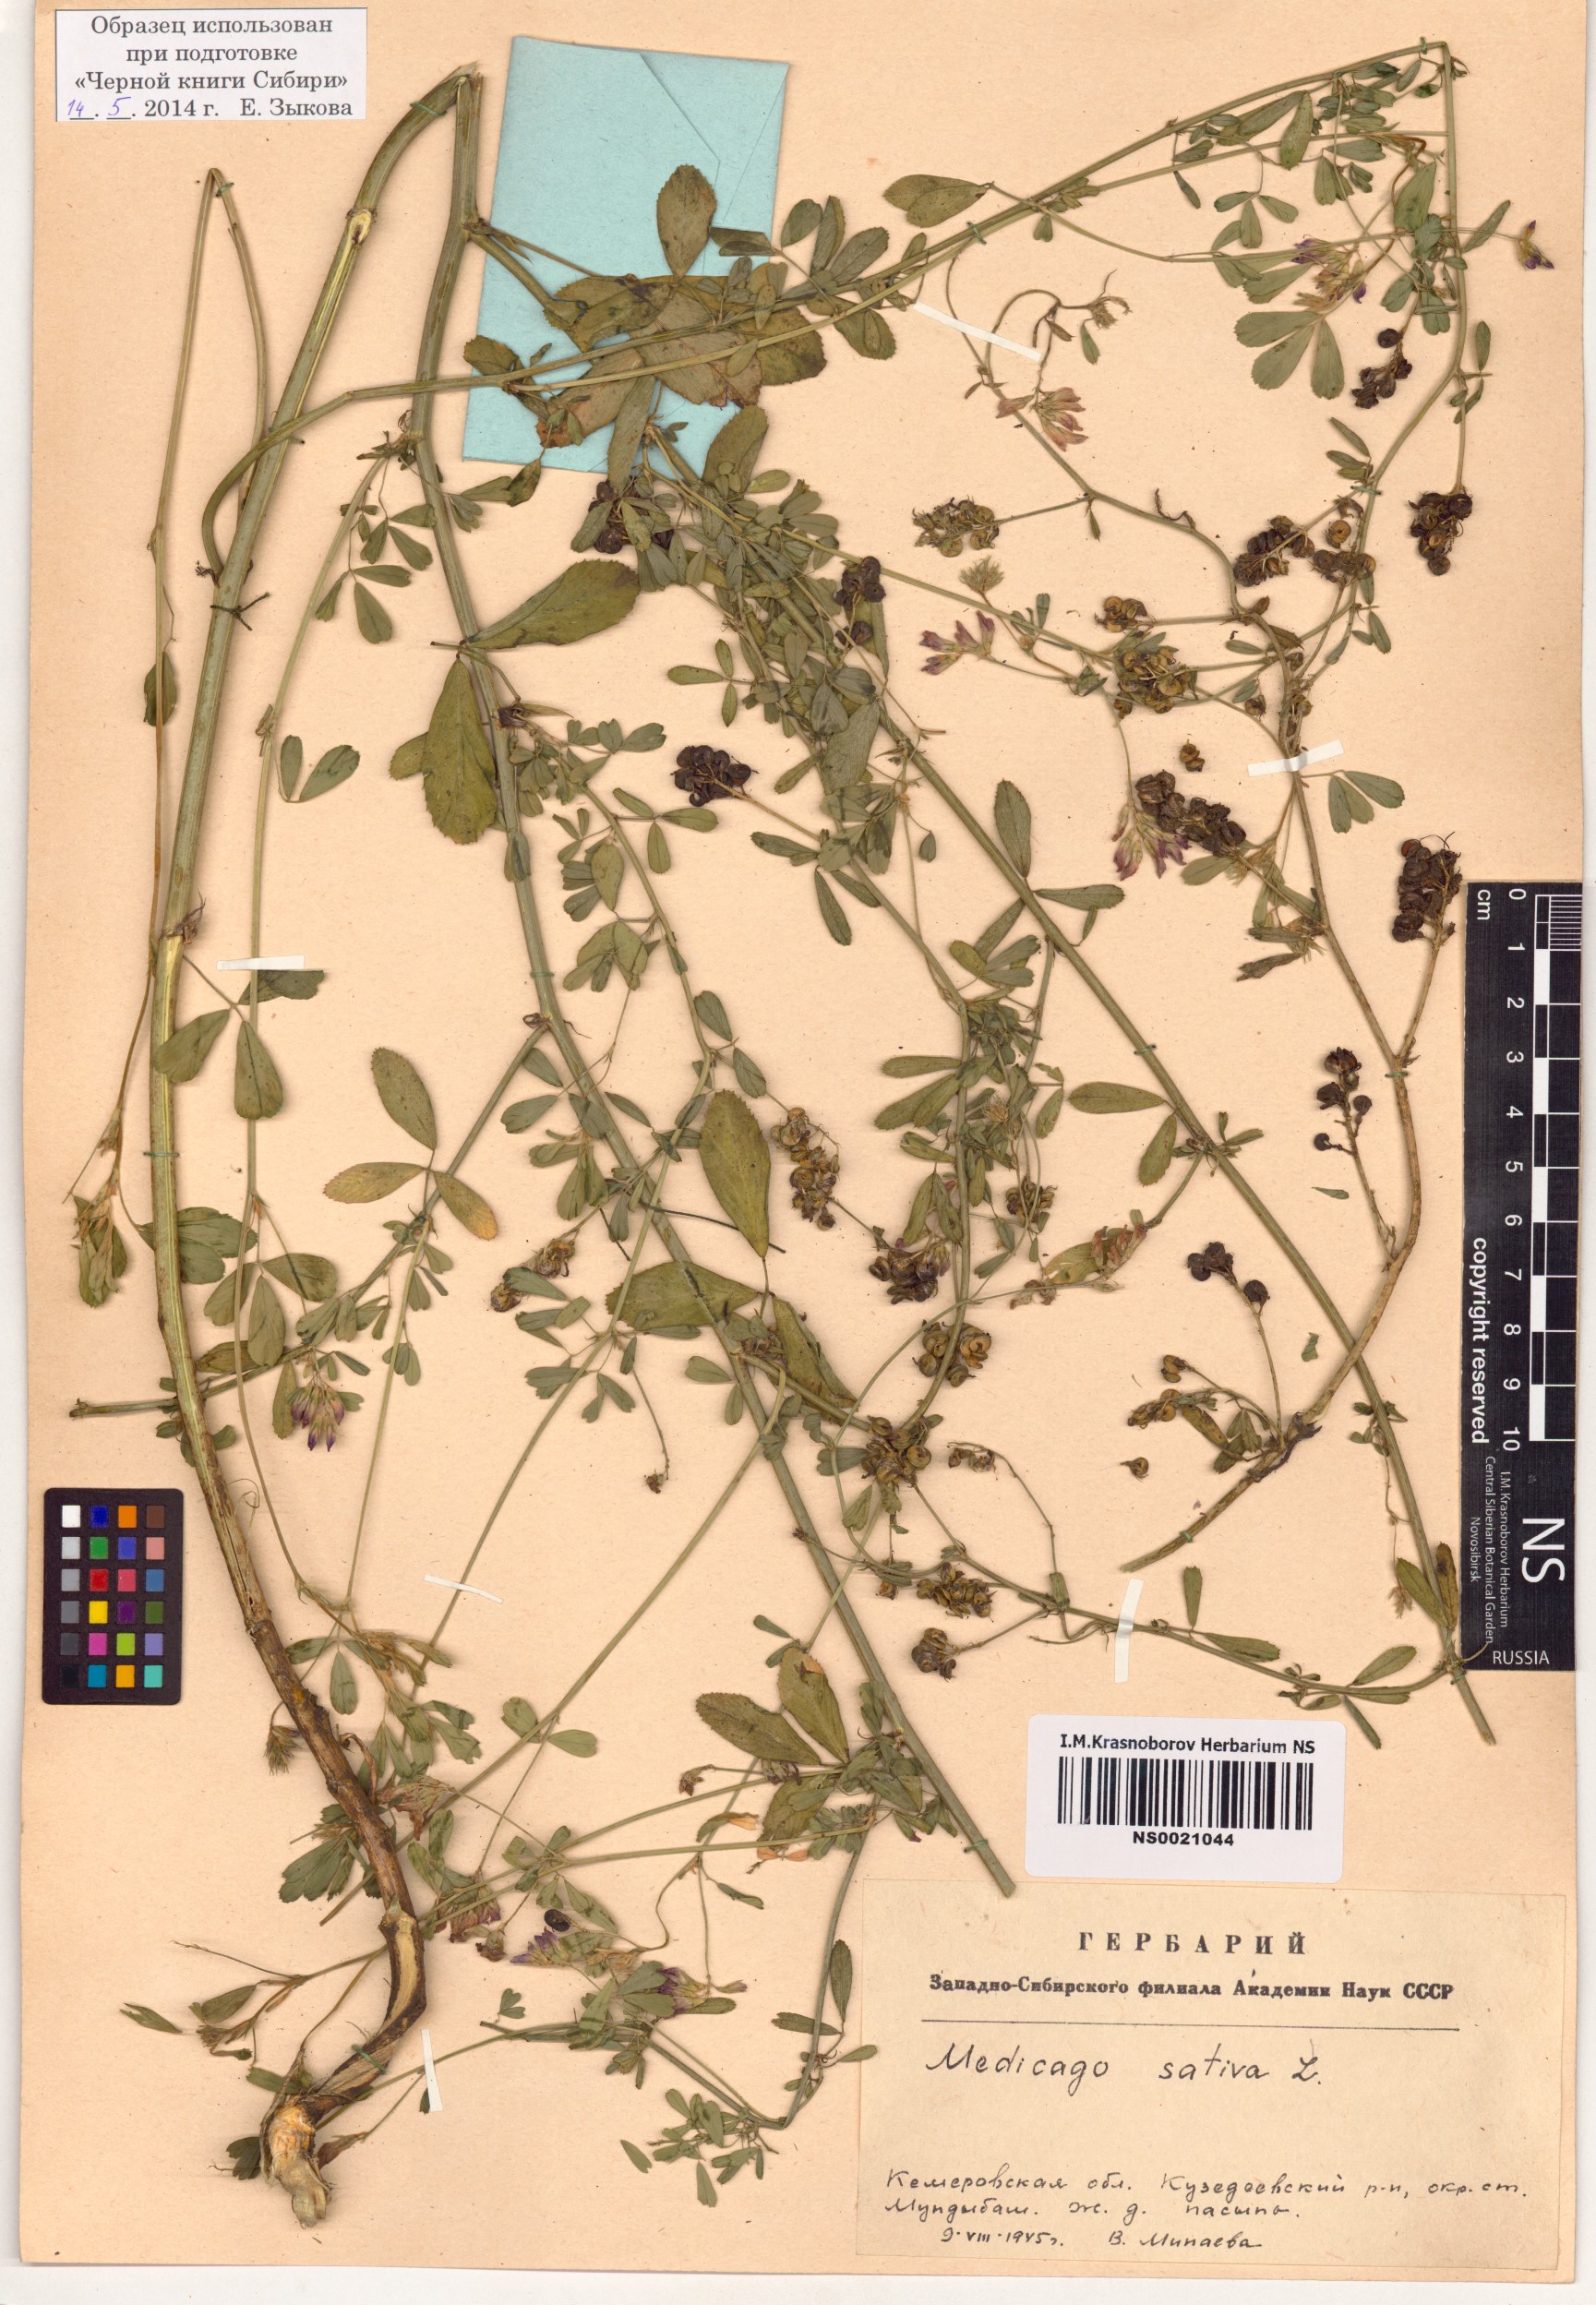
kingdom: Plantae
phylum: Tracheophyta
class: Magnoliopsida
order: Fabales
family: Fabaceae
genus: Medicago
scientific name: Medicago sativa
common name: Alfalfa
